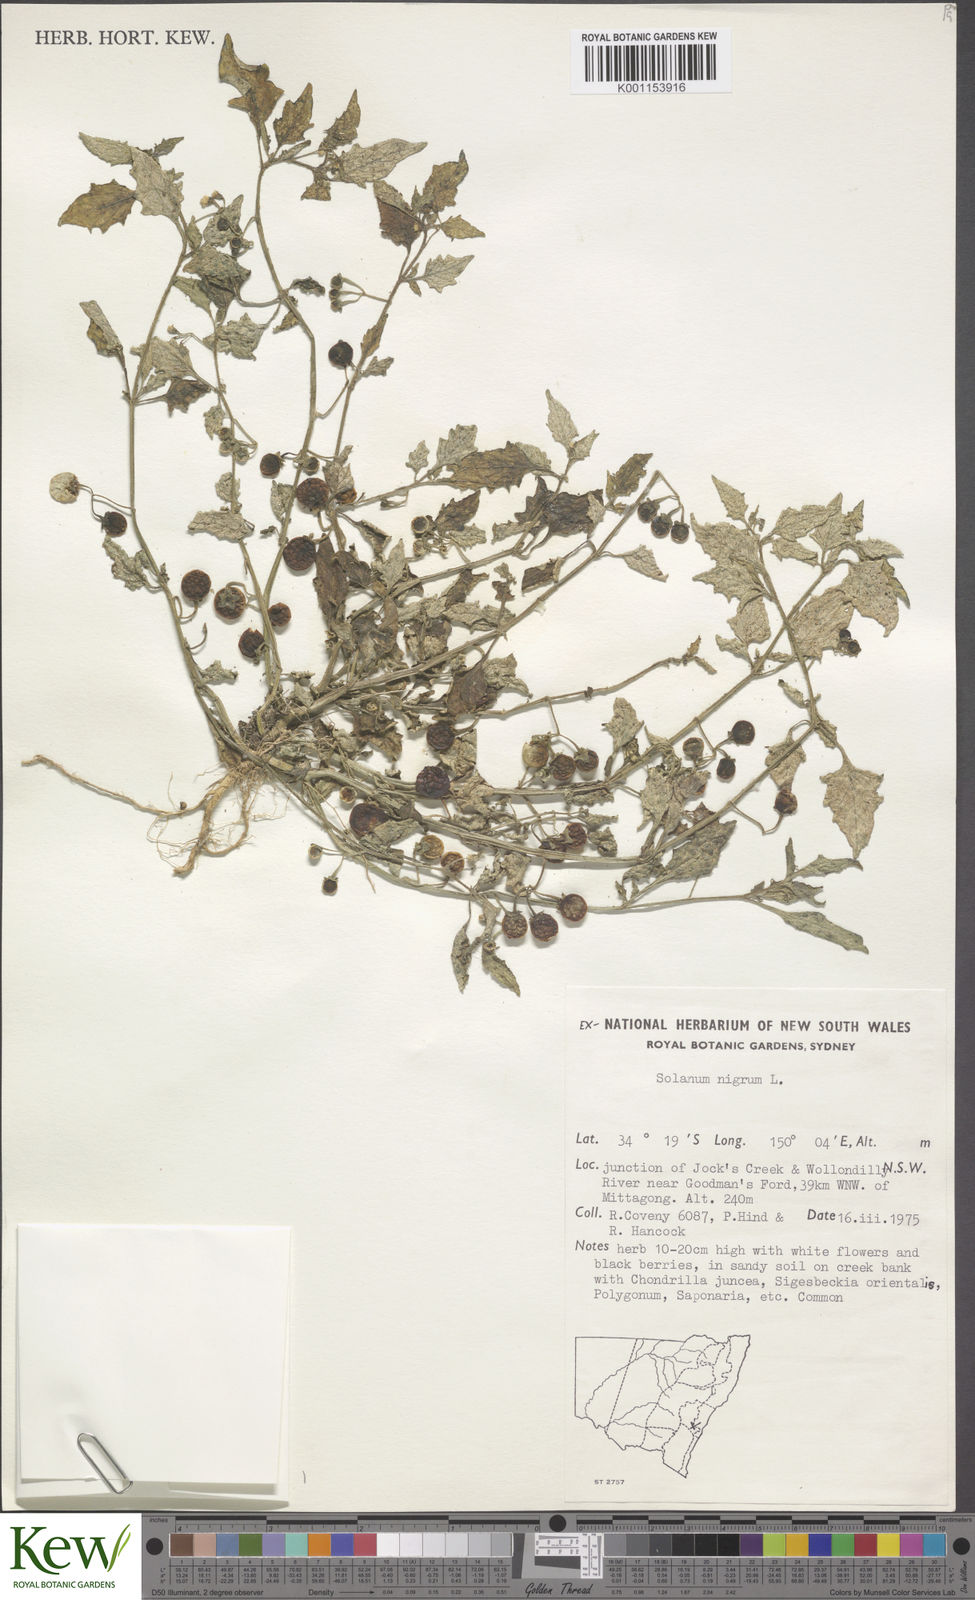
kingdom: Plantae
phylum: Tracheophyta
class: Magnoliopsida
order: Solanales
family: Solanaceae
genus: Solanum
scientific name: Solanum nigrum
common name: Black nightshade
